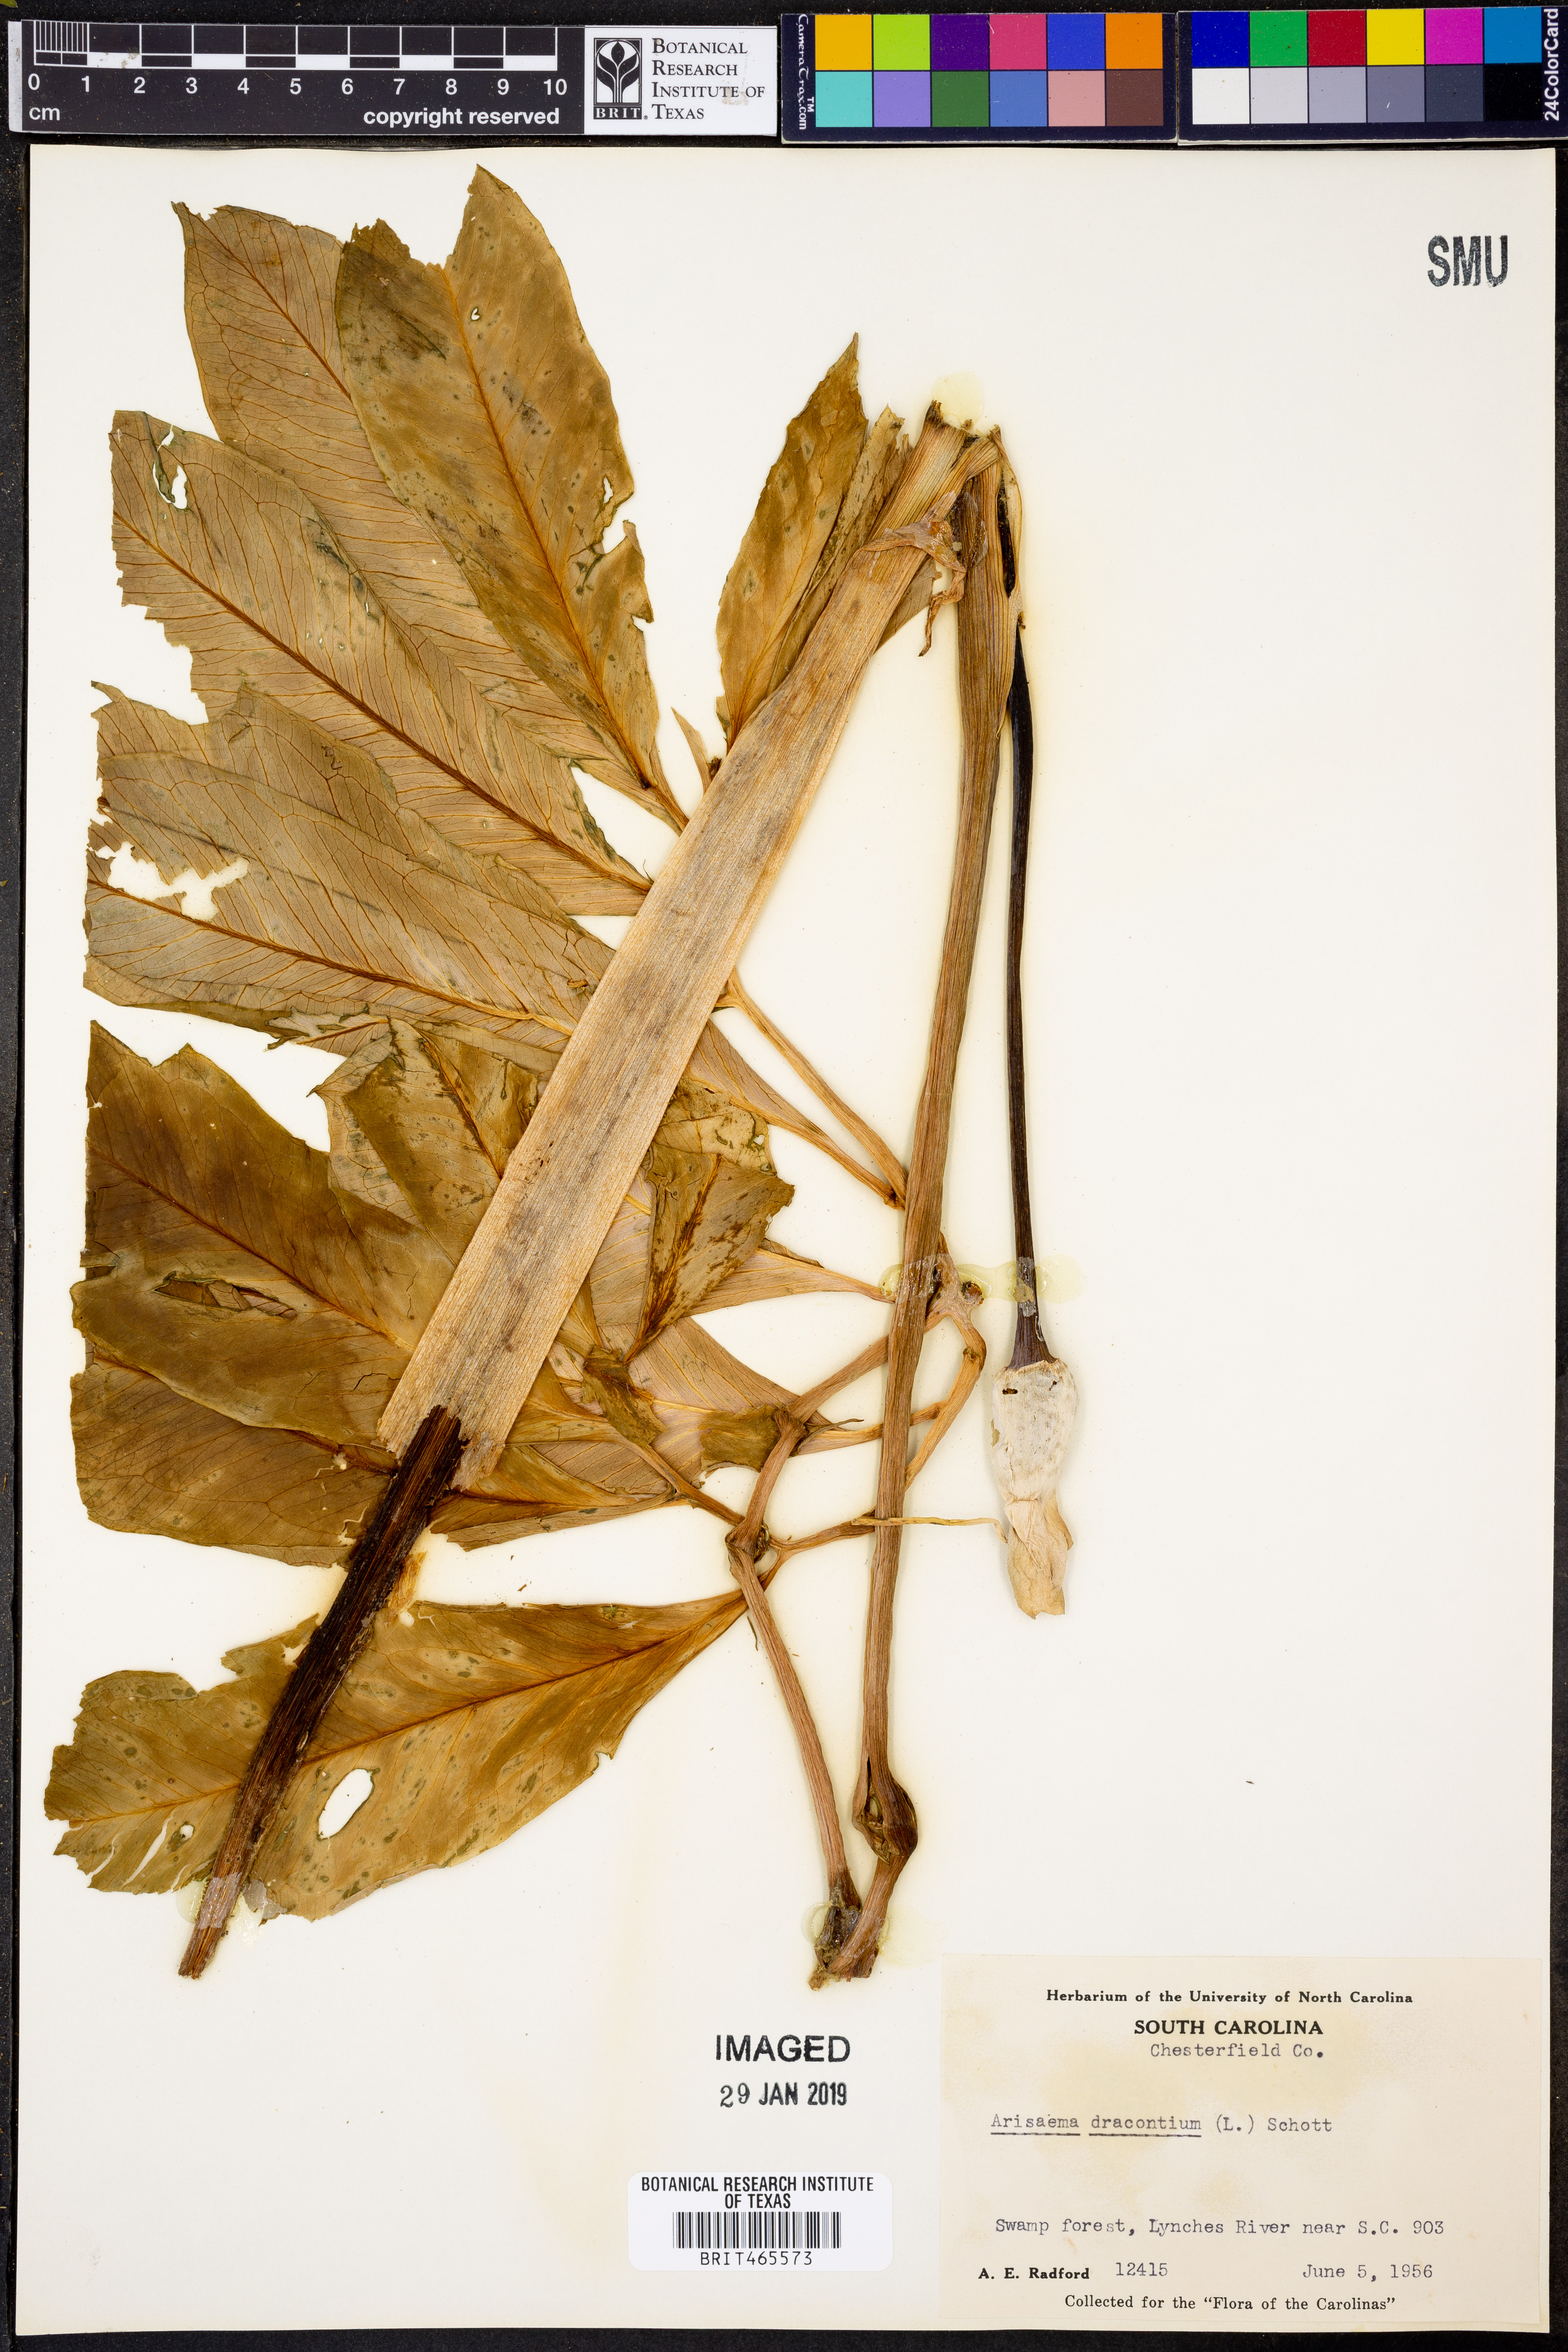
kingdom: Plantae
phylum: Tracheophyta
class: Liliopsida
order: Alismatales
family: Araceae
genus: Arisaema
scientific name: Arisaema dracontium
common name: Dragon-arum
